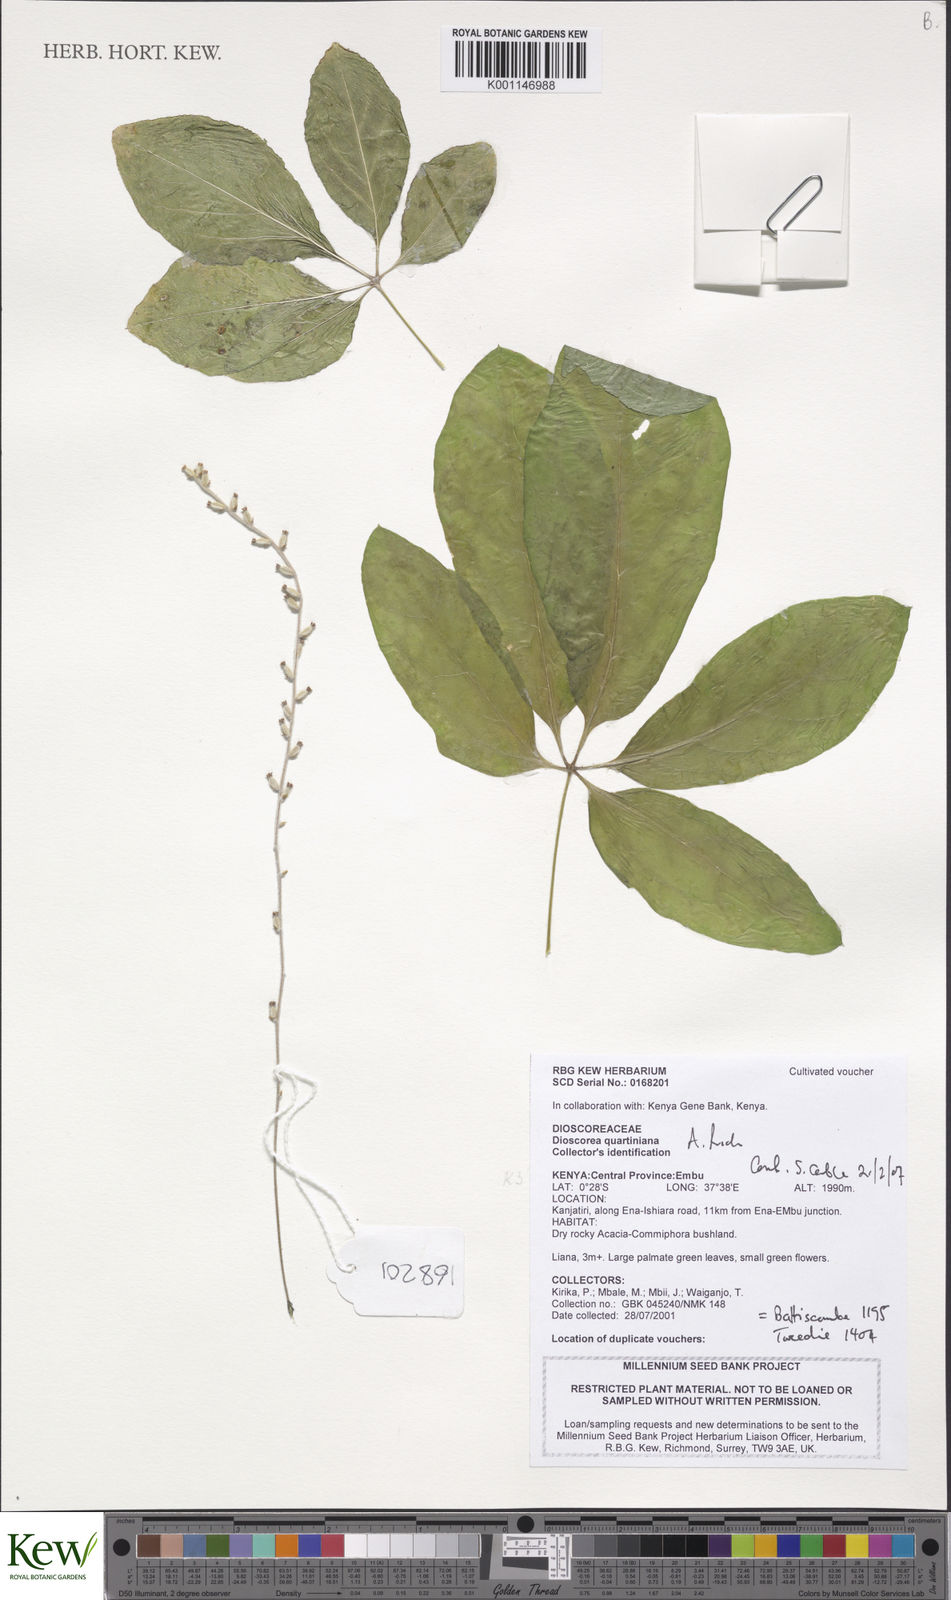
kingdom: Plantae
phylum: Tracheophyta
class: Liliopsida
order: Dioscoreales
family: Dioscoreaceae
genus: Dioscorea
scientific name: Dioscorea quartiniana
